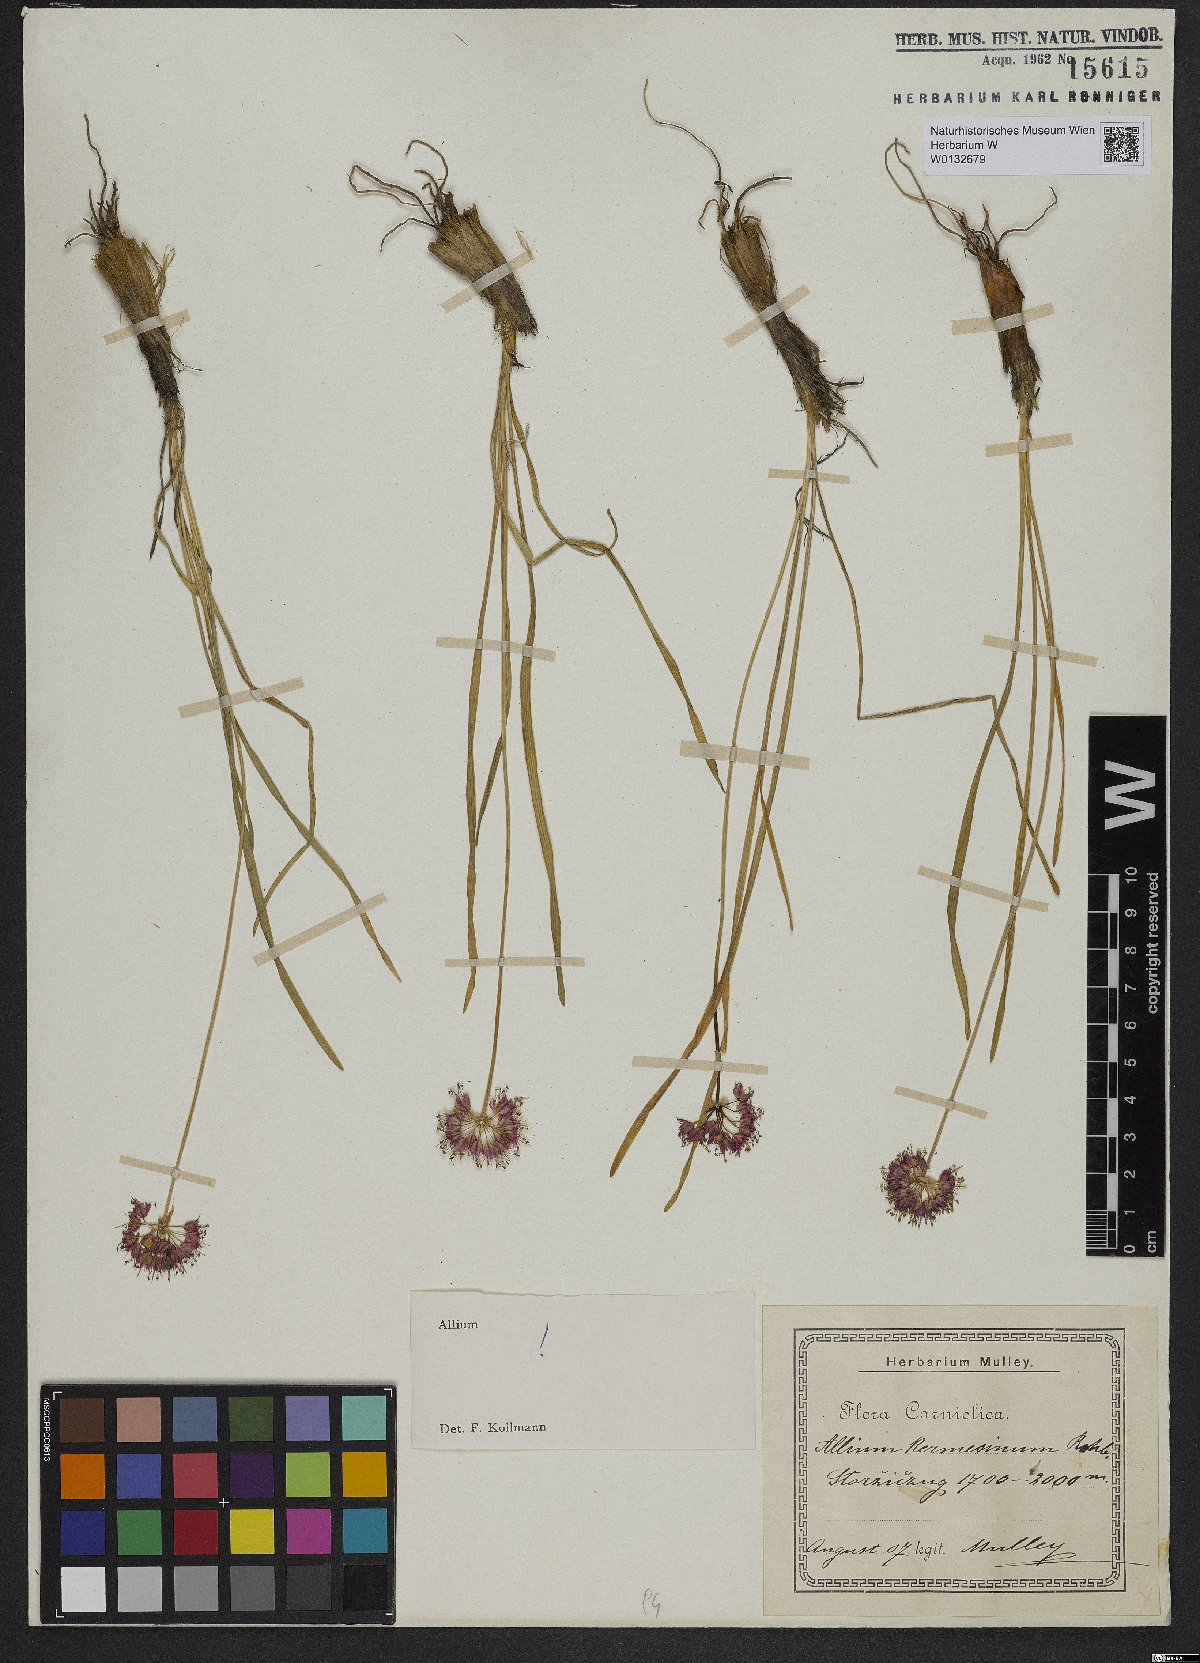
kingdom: Plantae
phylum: Tracheophyta
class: Liliopsida
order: Asparagales
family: Amaryllidaceae
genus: Allium
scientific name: Allium kermesinum
